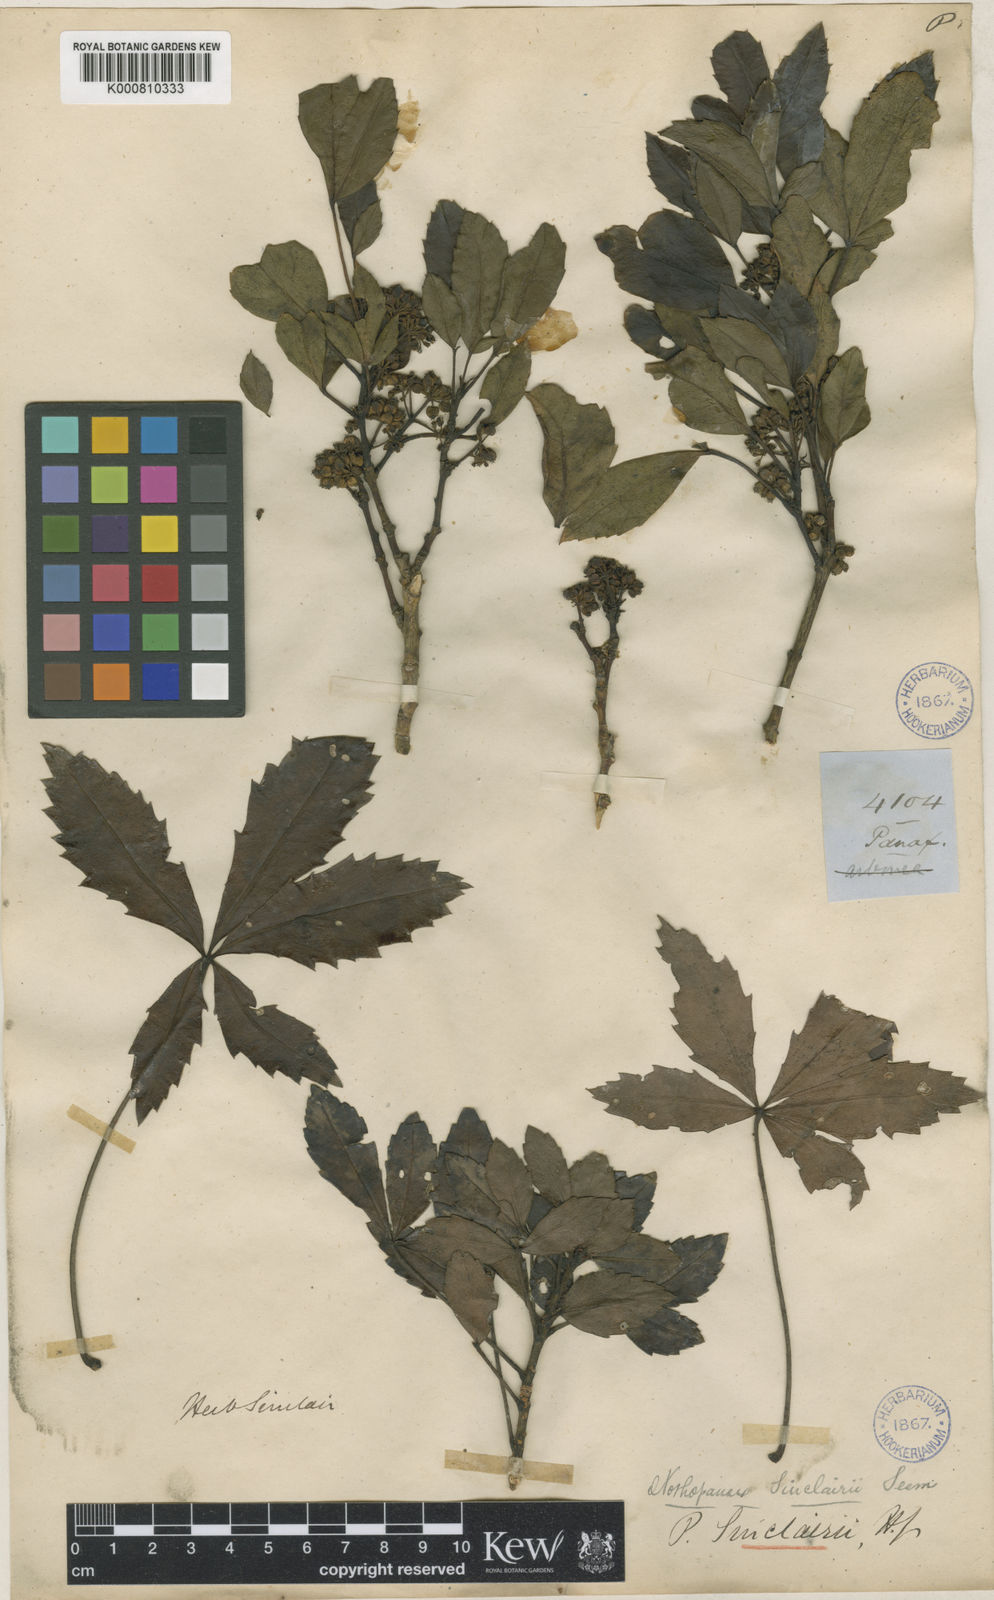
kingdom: Plantae
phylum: Tracheophyta
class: Magnoliopsida
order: Apiales
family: Araliaceae
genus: Raukaua
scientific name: Raukaua simplex
